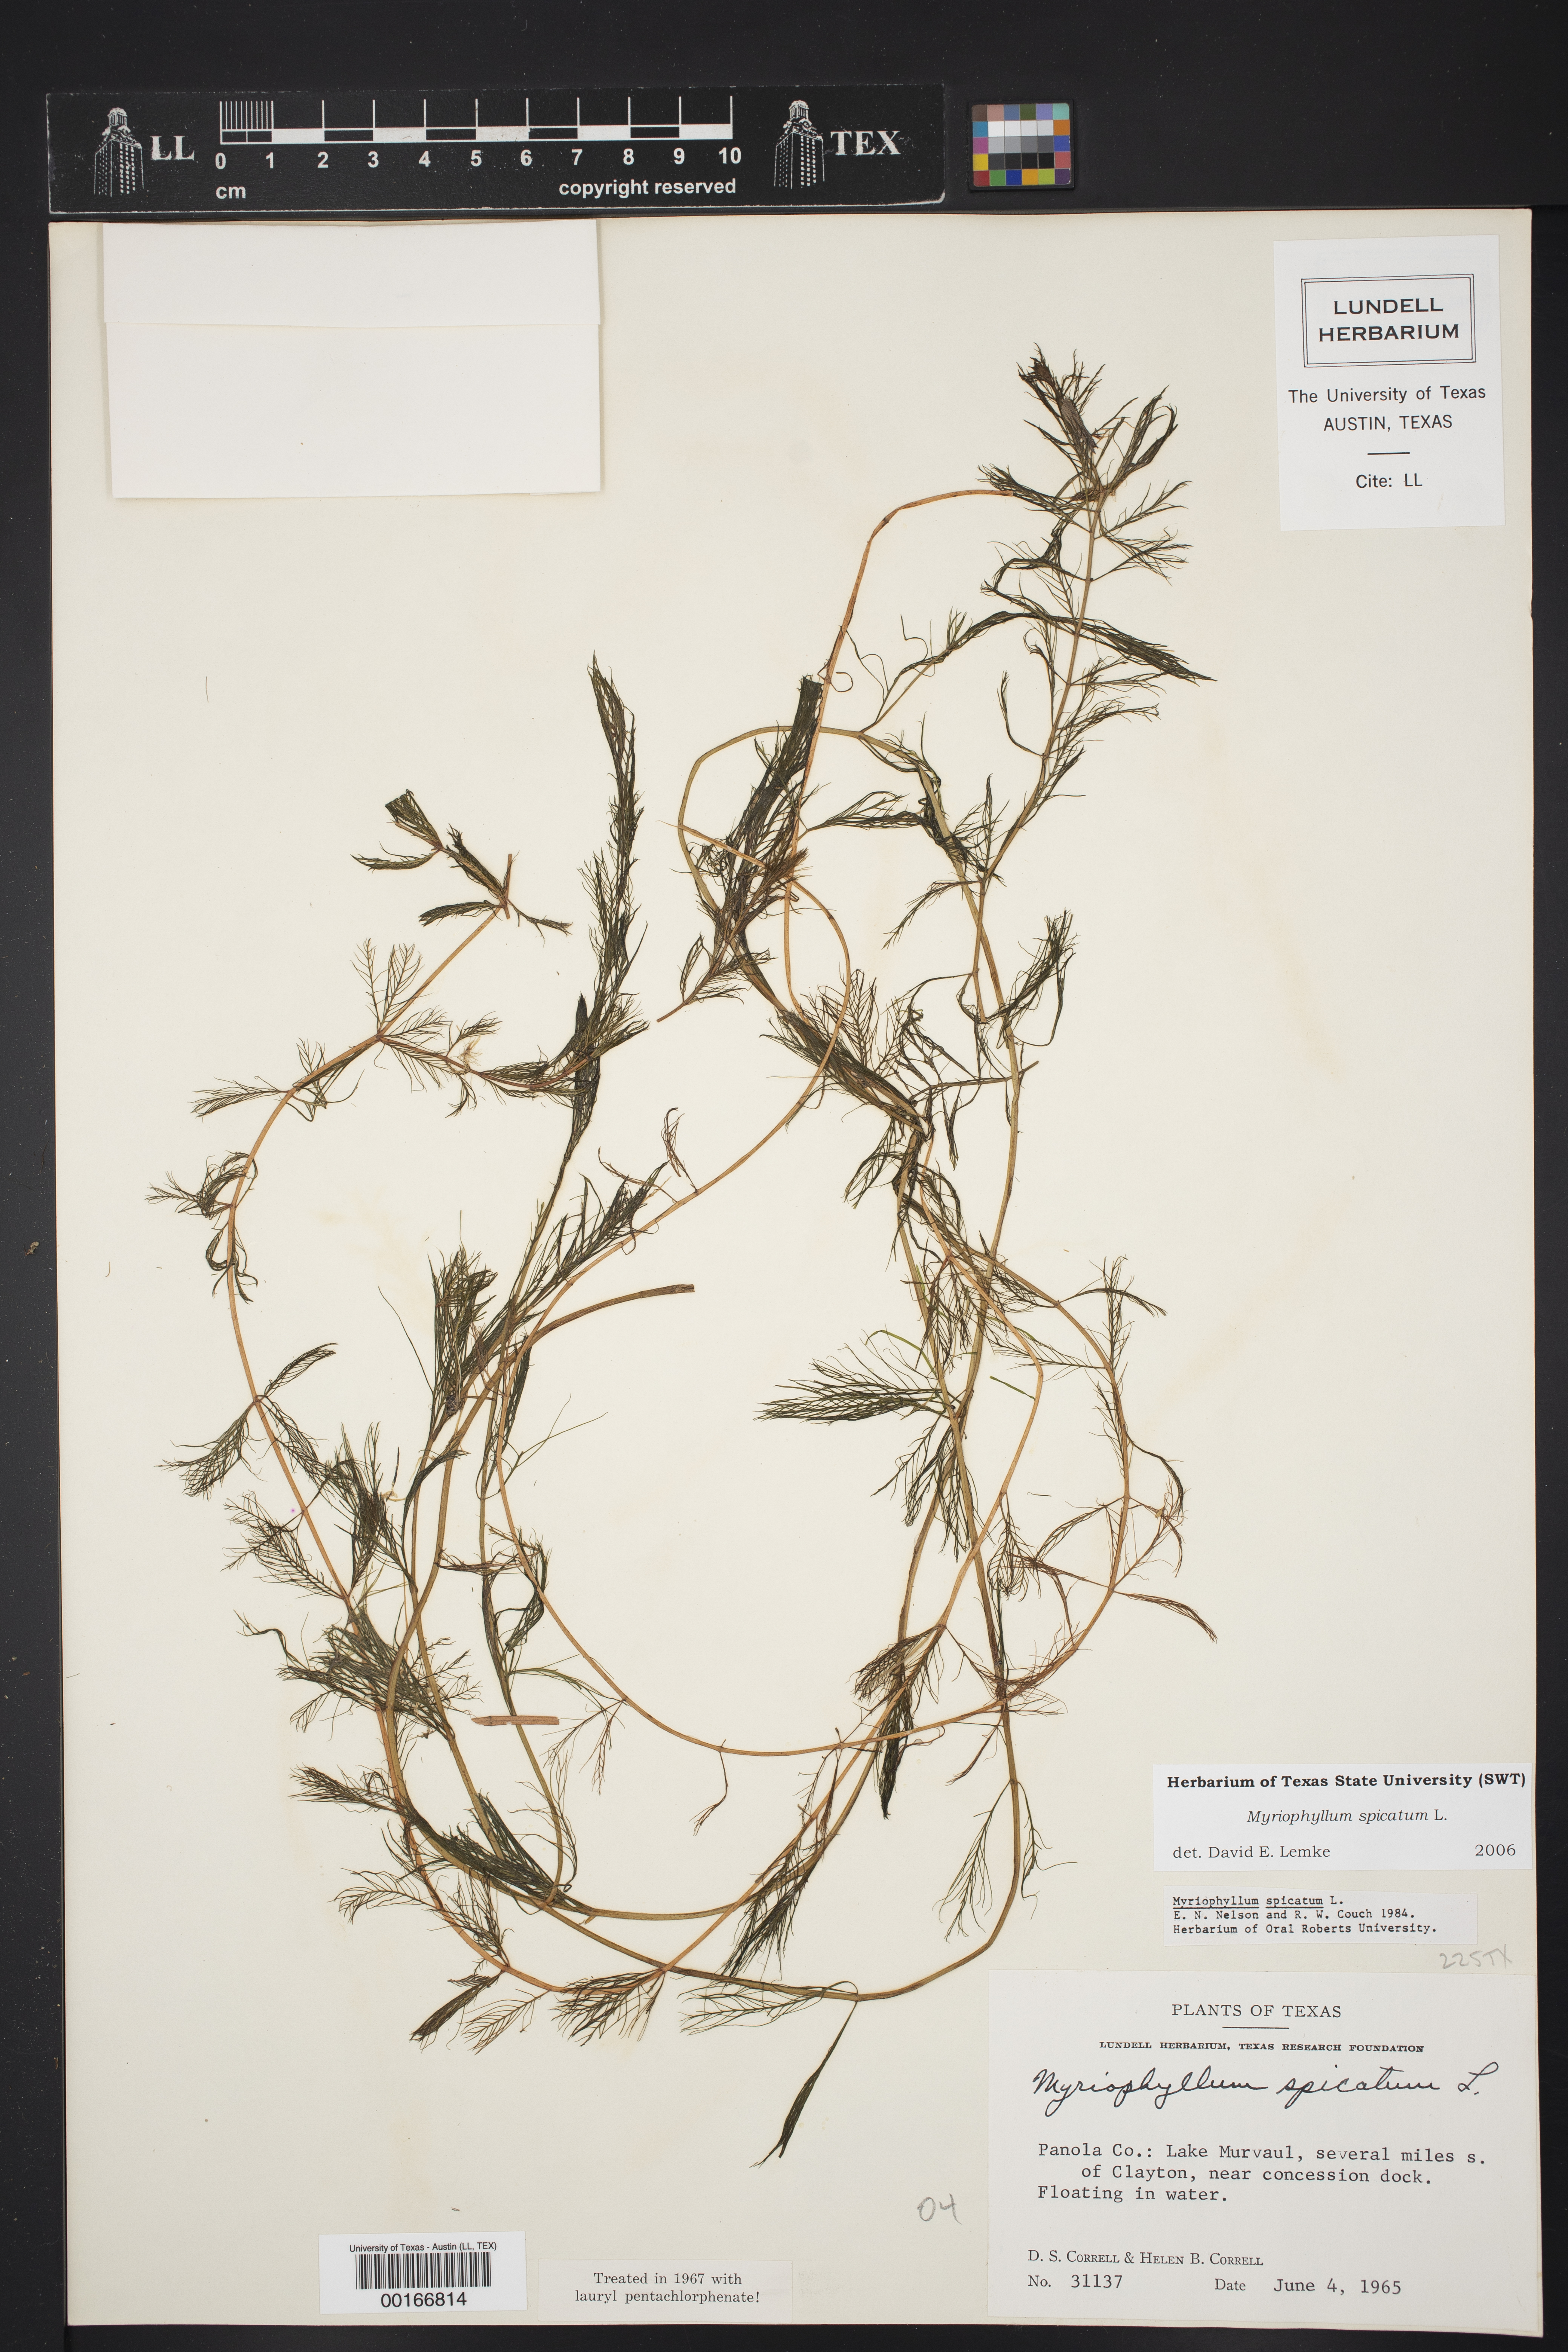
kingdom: Plantae
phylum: Tracheophyta
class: Magnoliopsida
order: Saxifragales
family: Haloragaceae
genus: Myriophyllum
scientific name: Myriophyllum spicatum
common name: Spiked water-milfoil
